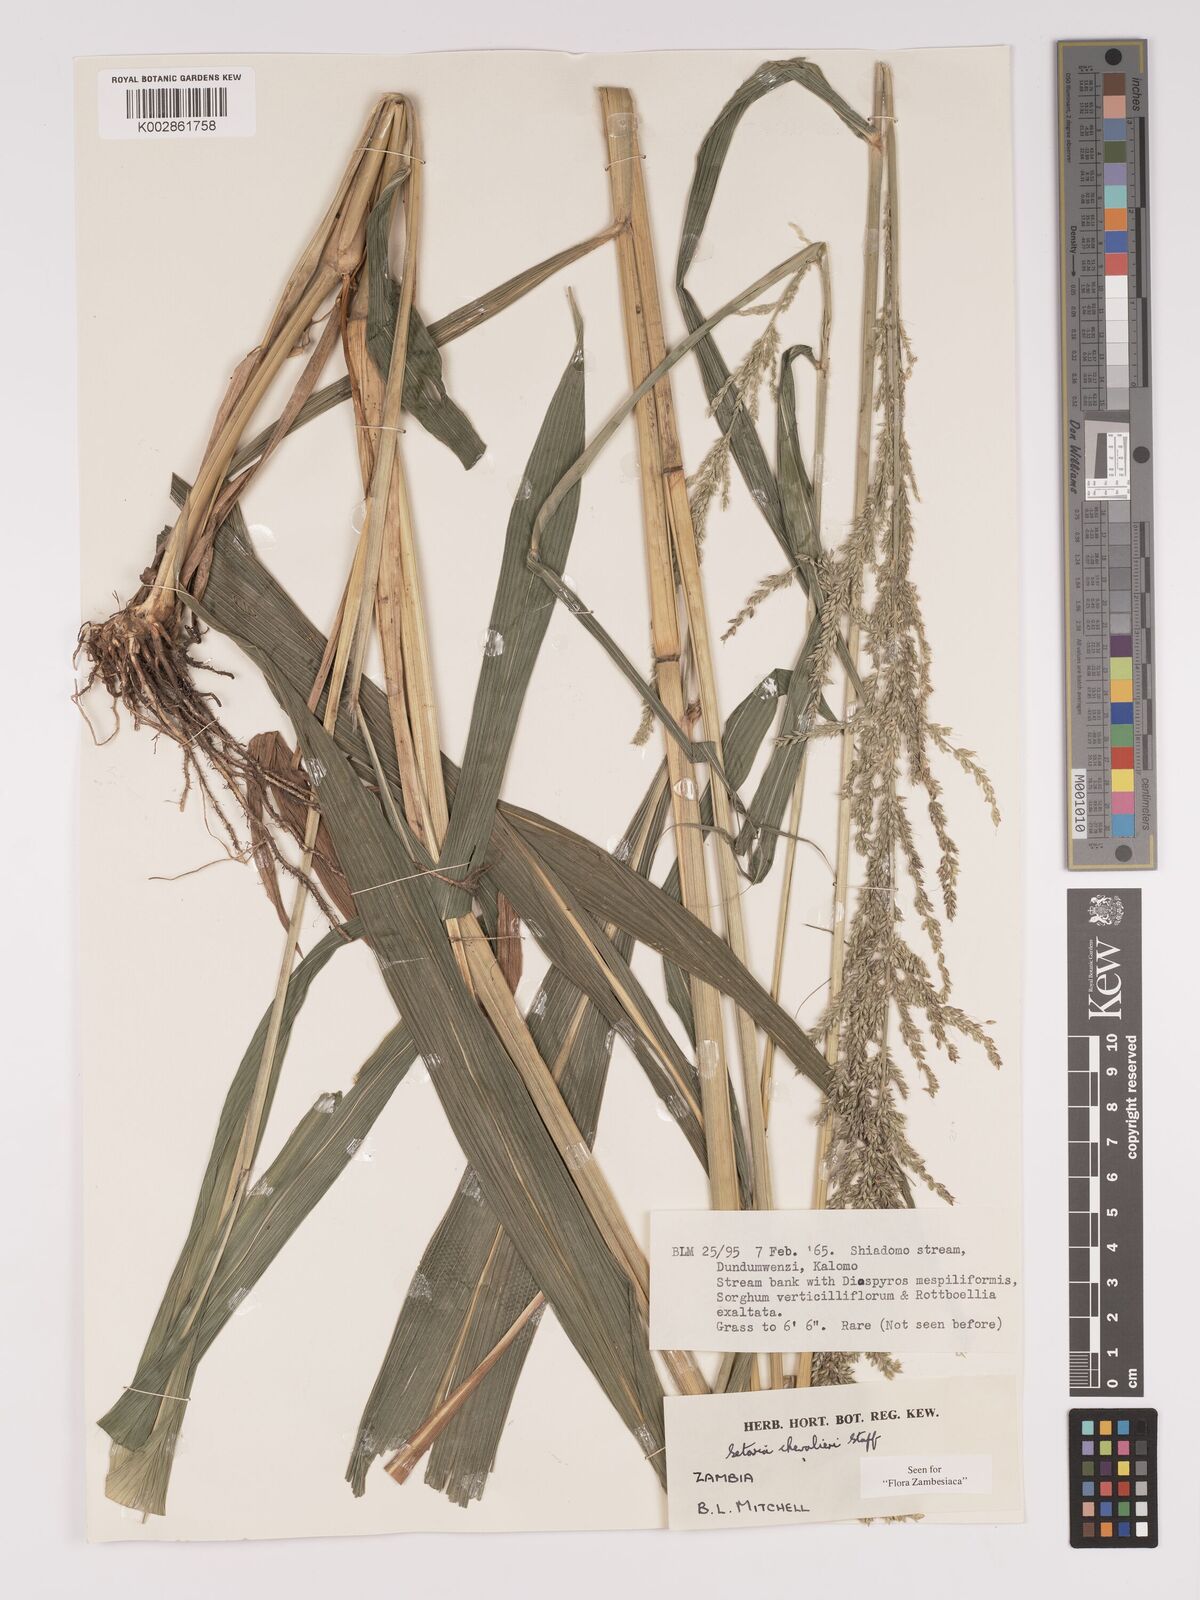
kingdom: Plantae
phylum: Tracheophyta
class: Liliopsida
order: Poales
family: Poaceae
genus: Setaria
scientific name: Setaria megaphylla
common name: Bigleaf bristlegrass
